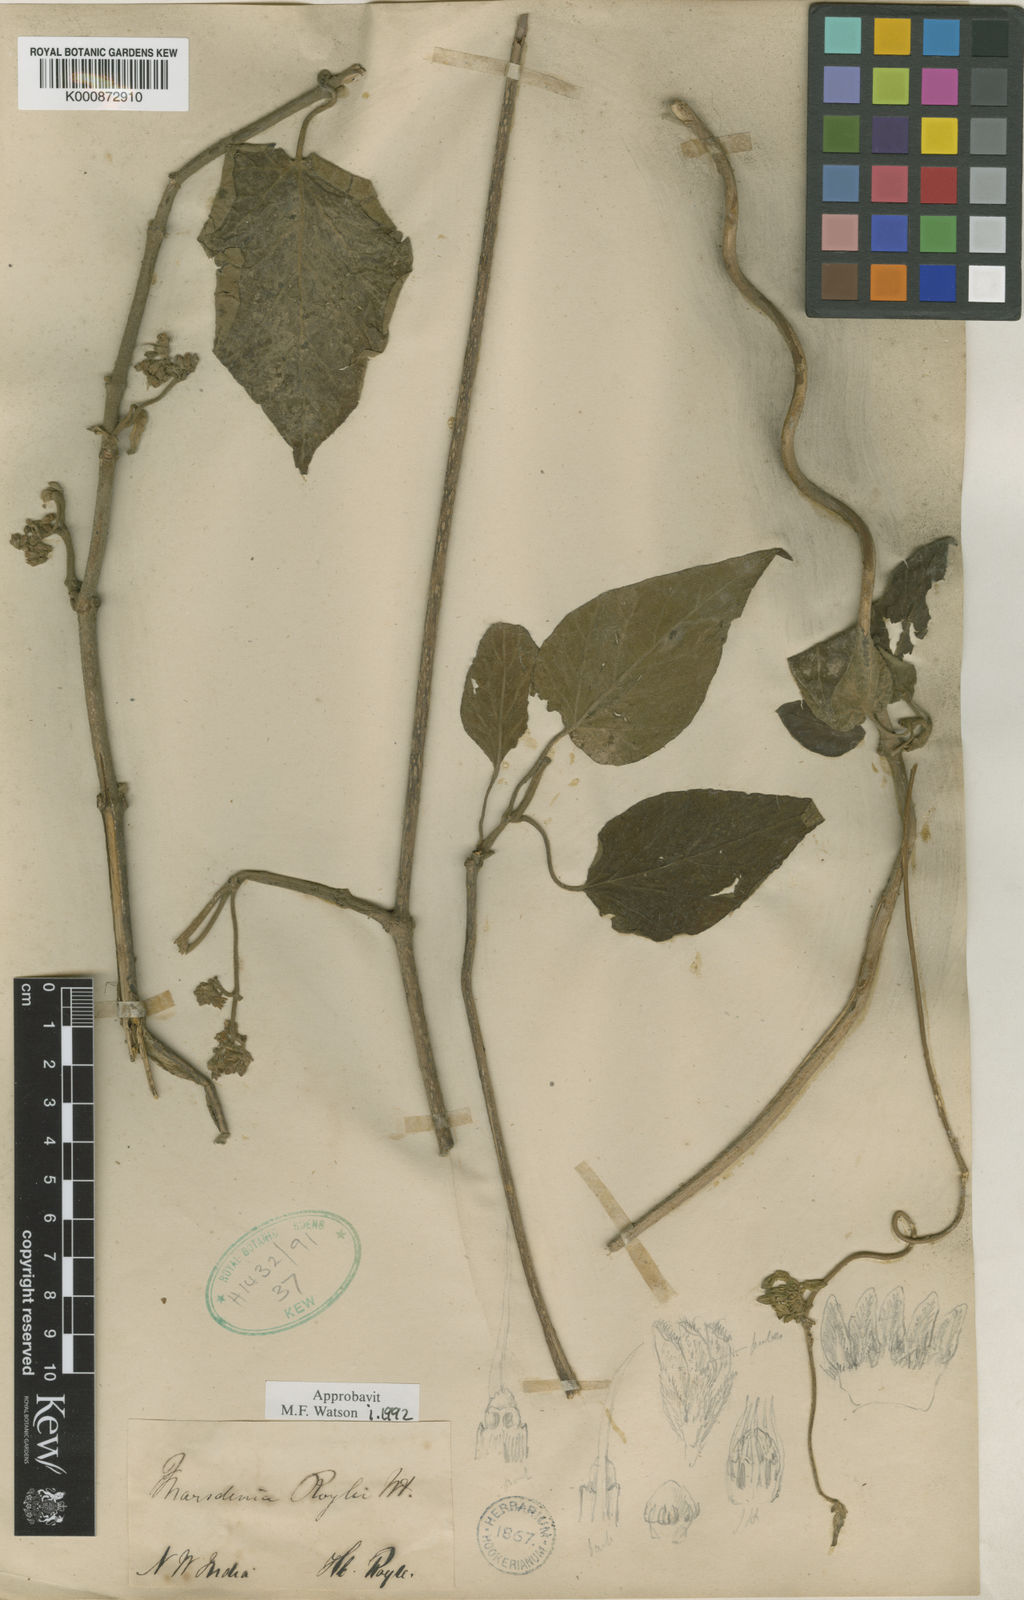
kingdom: Plantae
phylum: Tracheophyta
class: Magnoliopsida
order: Gentianales
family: Apocynaceae
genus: Marsdenia
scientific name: Marsdenia roylei
